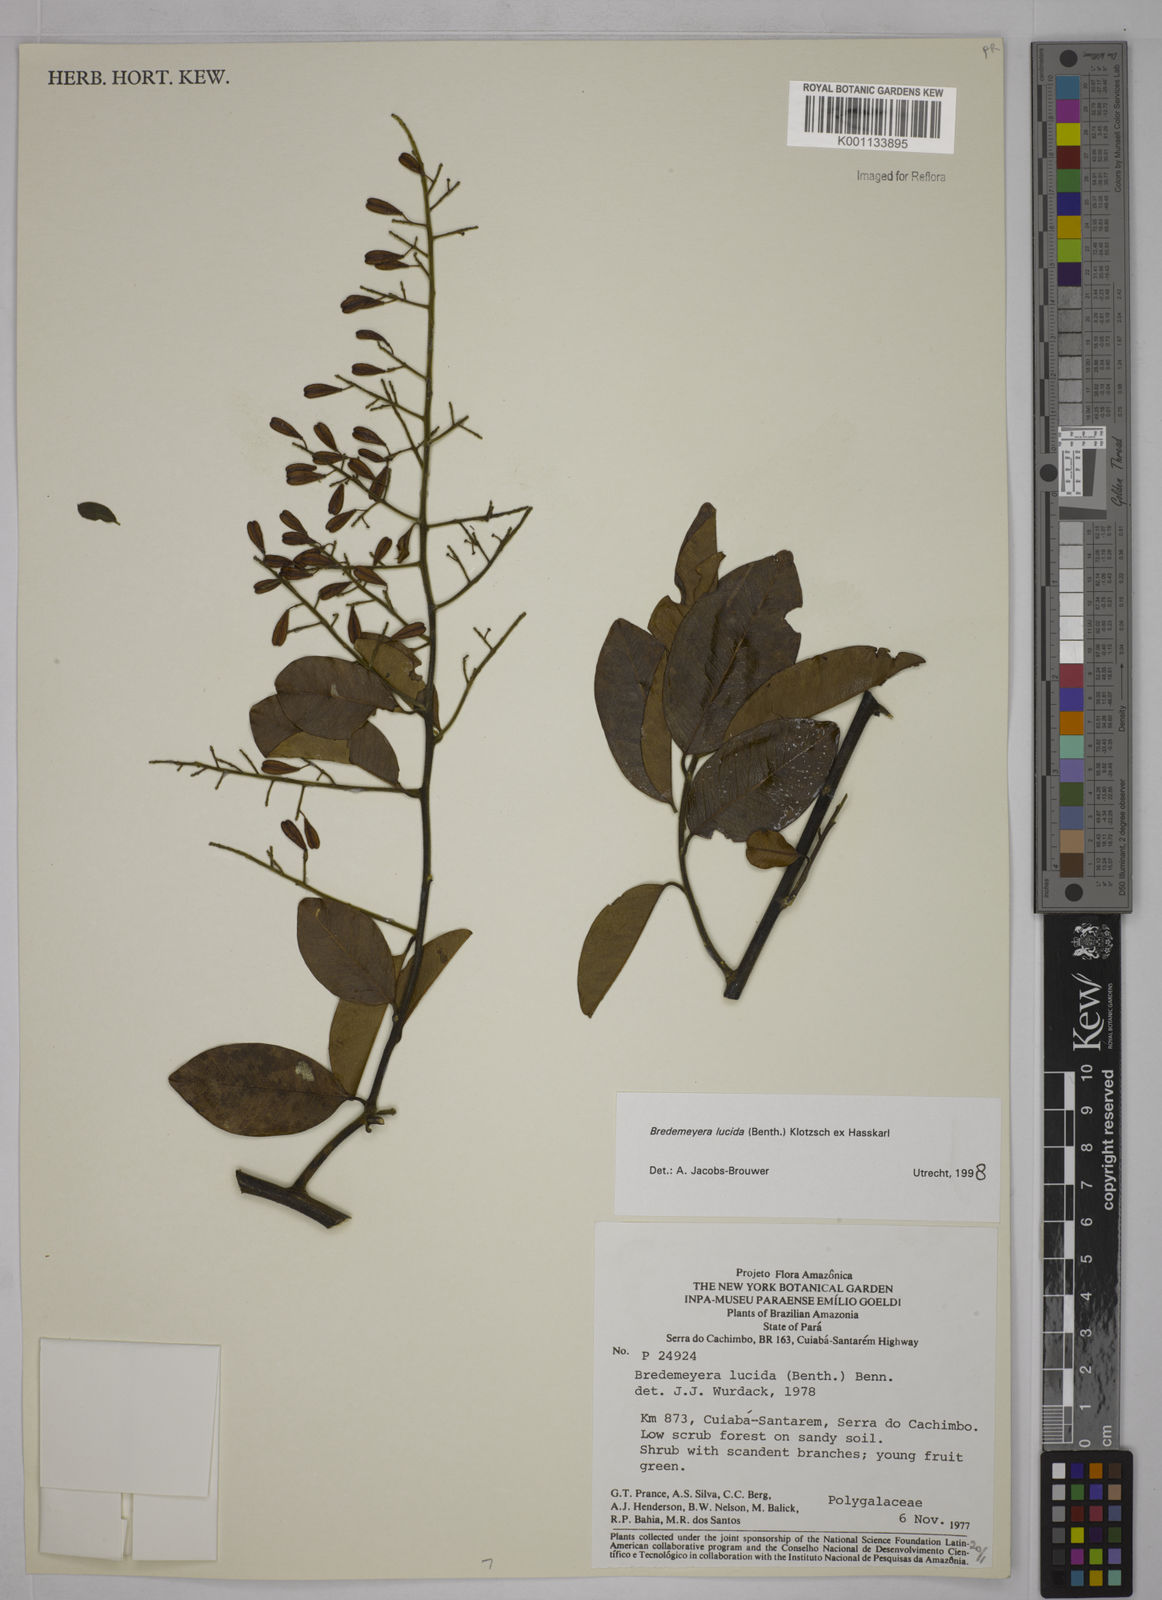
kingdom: Plantae
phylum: Tracheophyta
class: Magnoliopsida
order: Fabales
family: Polygalaceae
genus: Bredemeyera
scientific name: Bredemeyera lucida
